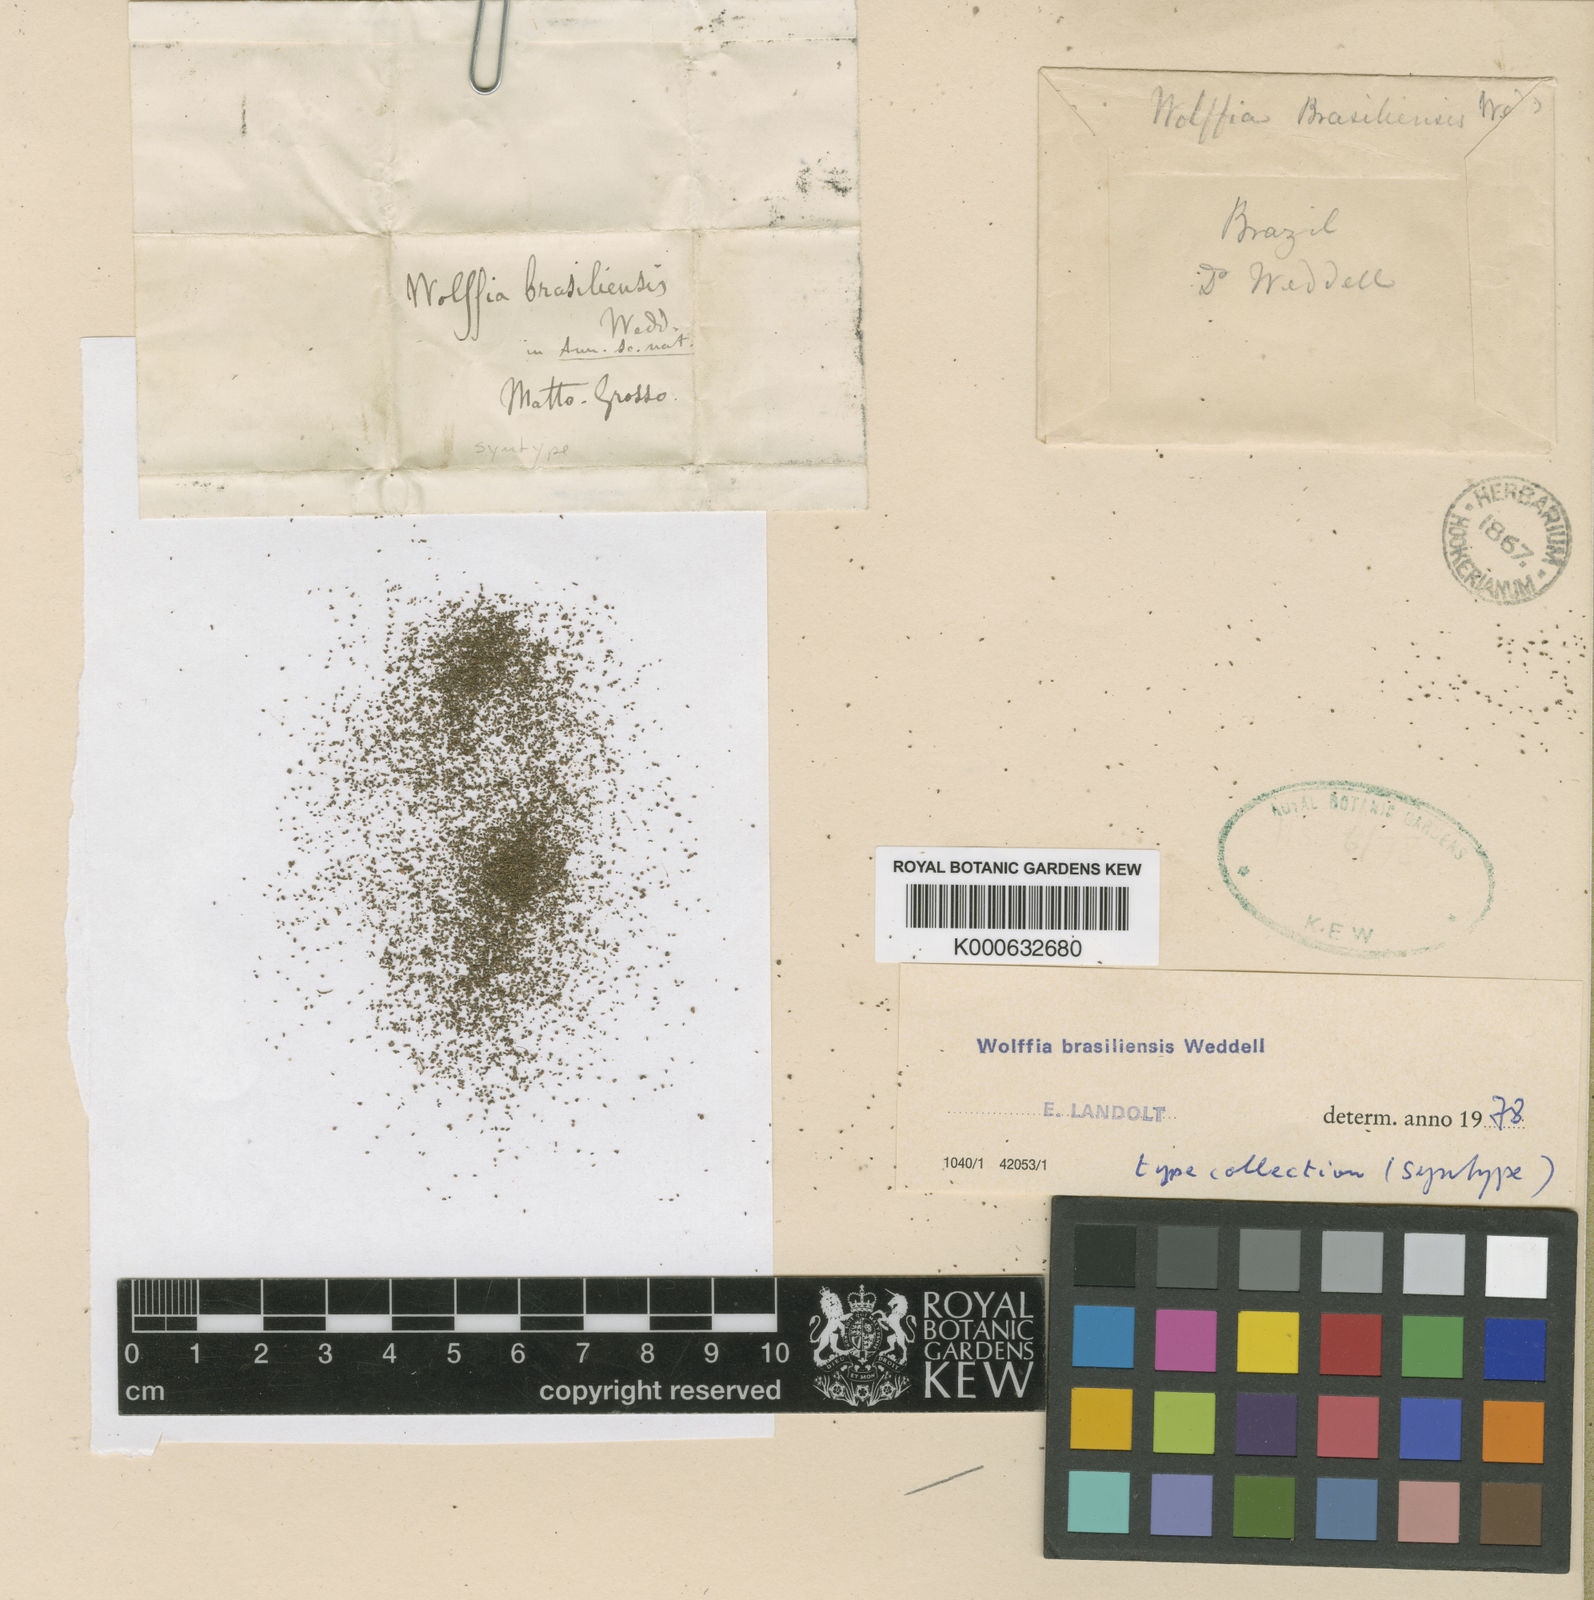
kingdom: Plantae
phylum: Tracheophyta
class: Liliopsida
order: Alismatales
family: Araceae
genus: Wolffia
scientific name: Wolffia brasiliensis
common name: Brazilian watermeal
